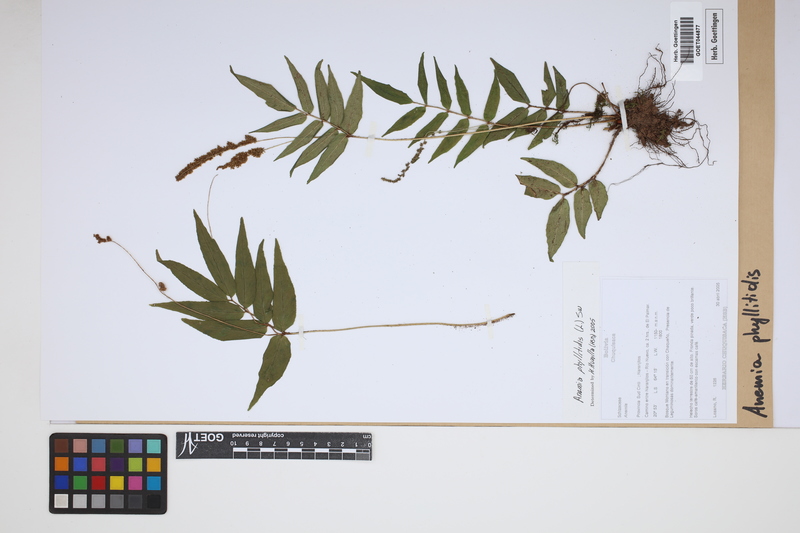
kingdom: Plantae
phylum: Tracheophyta
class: Polypodiopsida
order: Schizaeales
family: Anemiaceae
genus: Anemia
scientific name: Anemia phyllitidis
